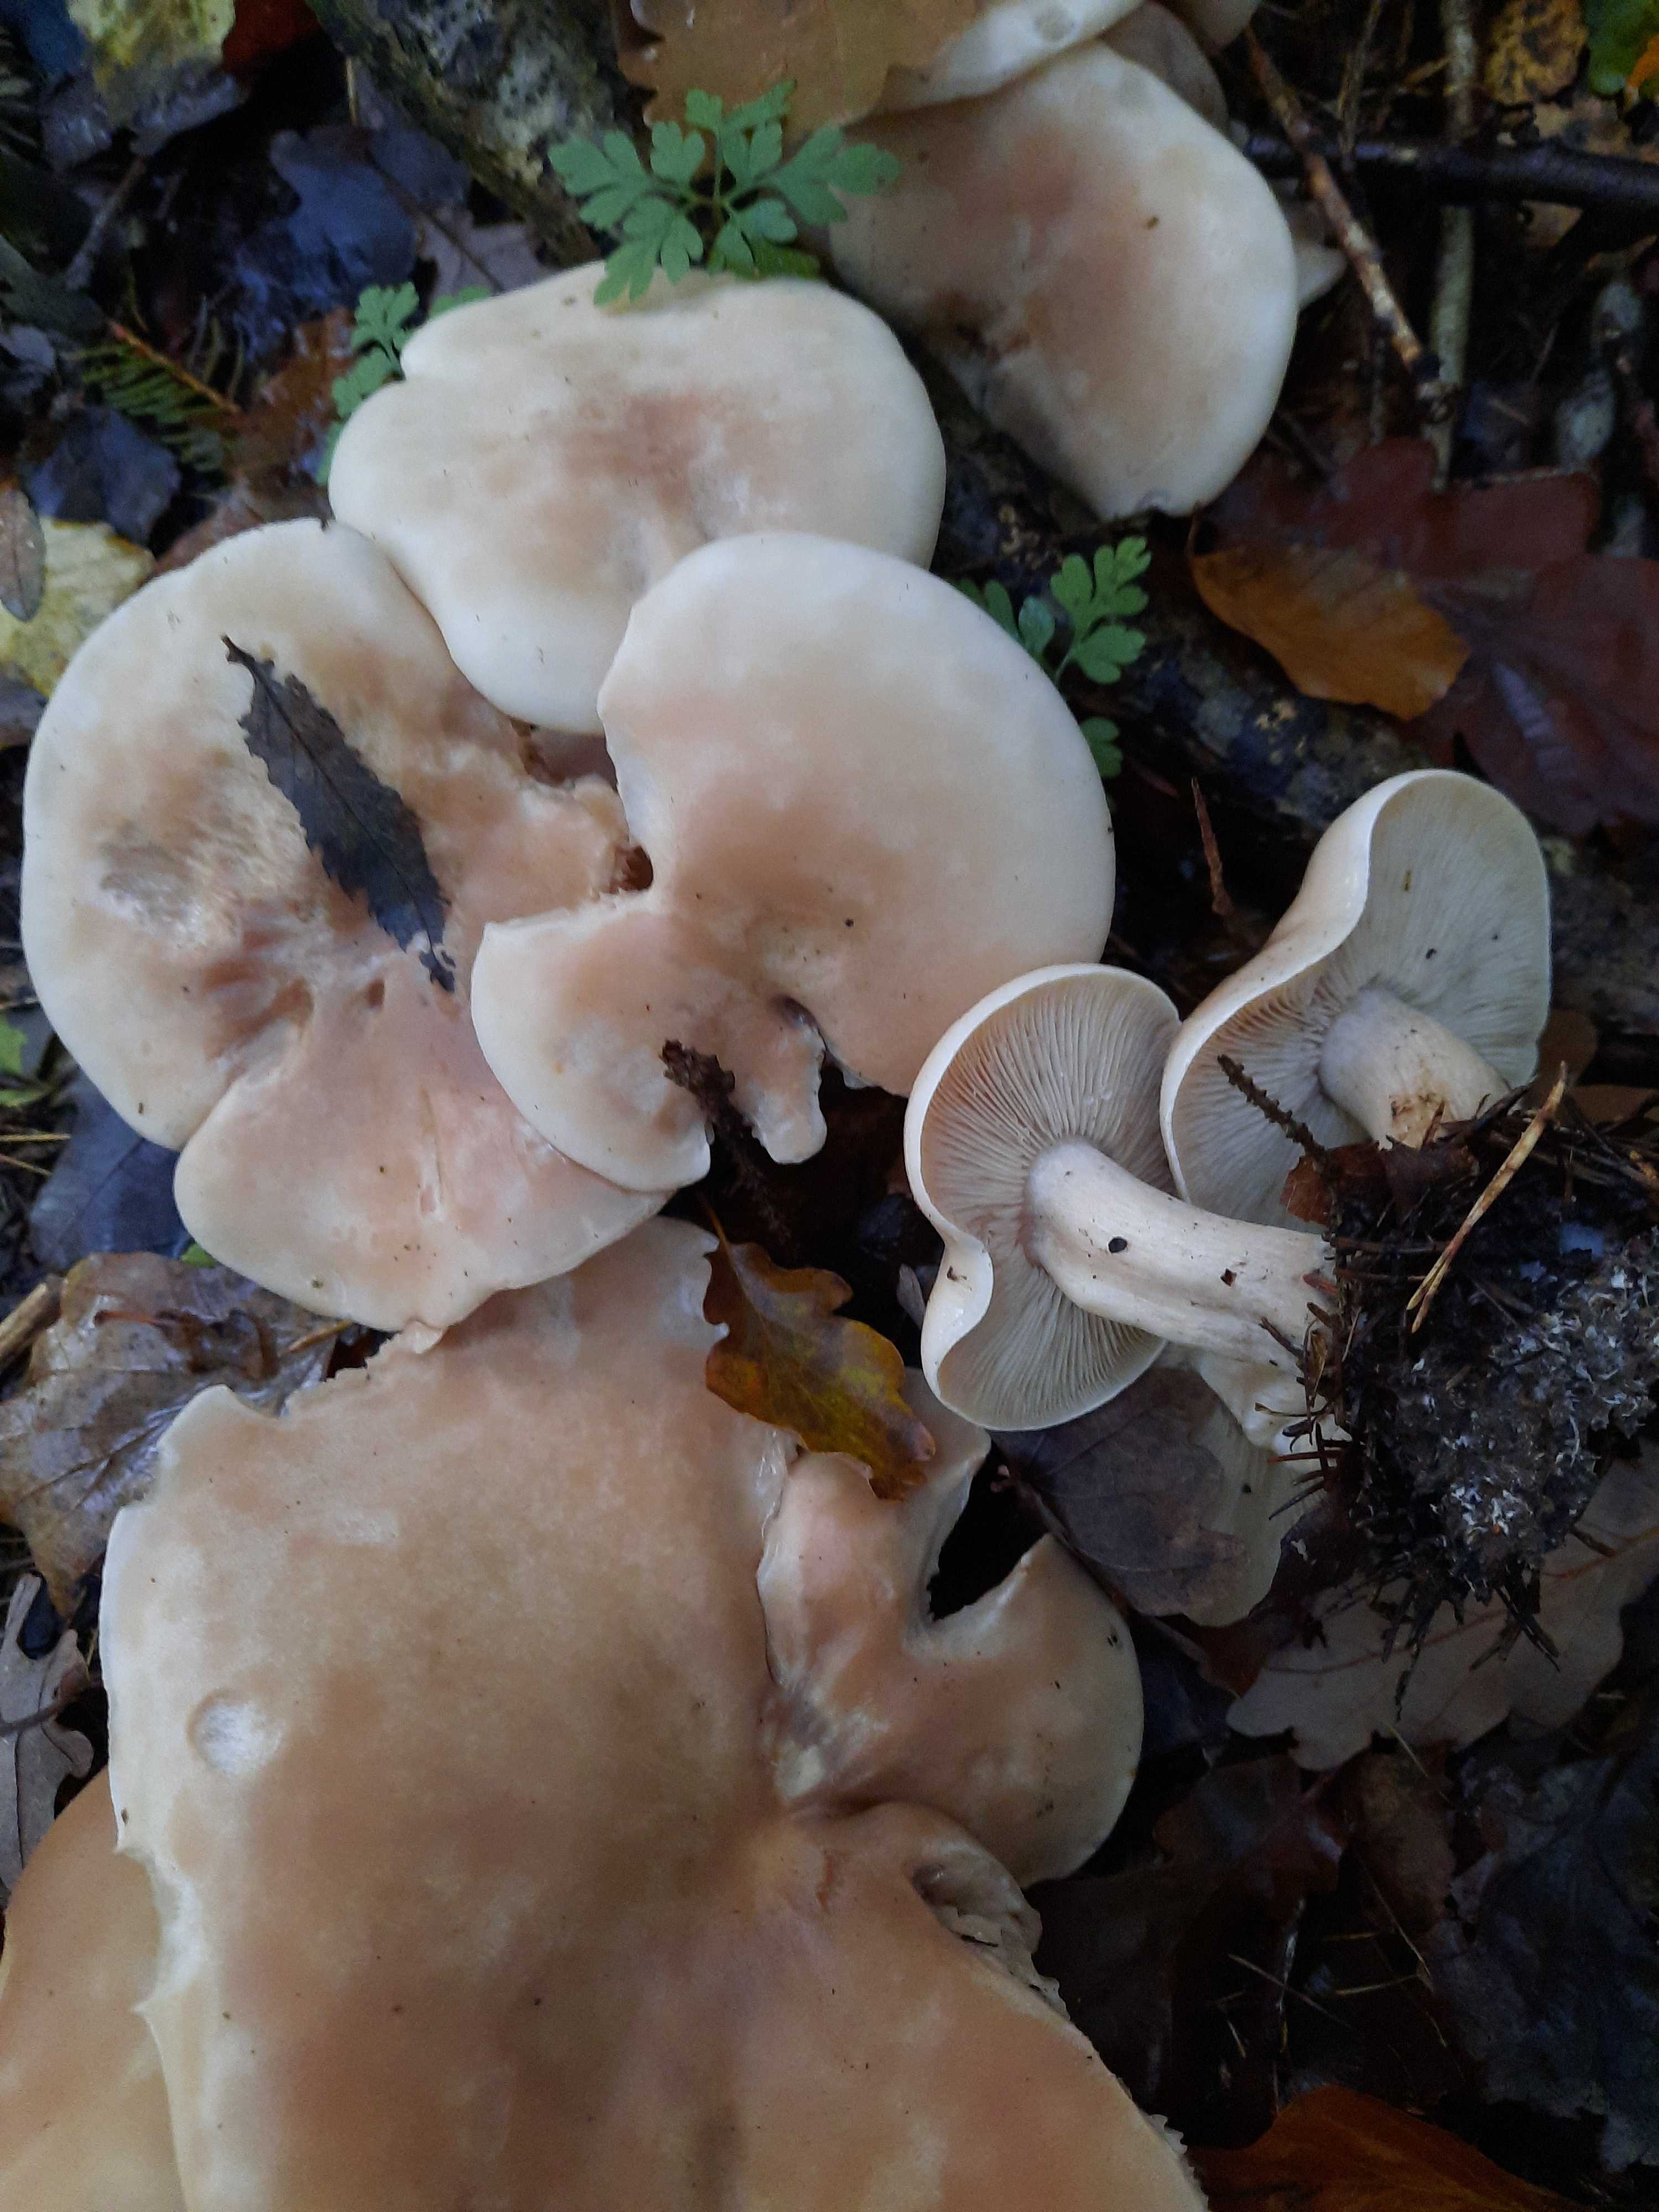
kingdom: Fungi
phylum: Basidiomycota
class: Agaricomycetes
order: Agaricales
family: Tricholomataceae
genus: Lepista
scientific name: Lepista irina
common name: violduftende hekseringshat
